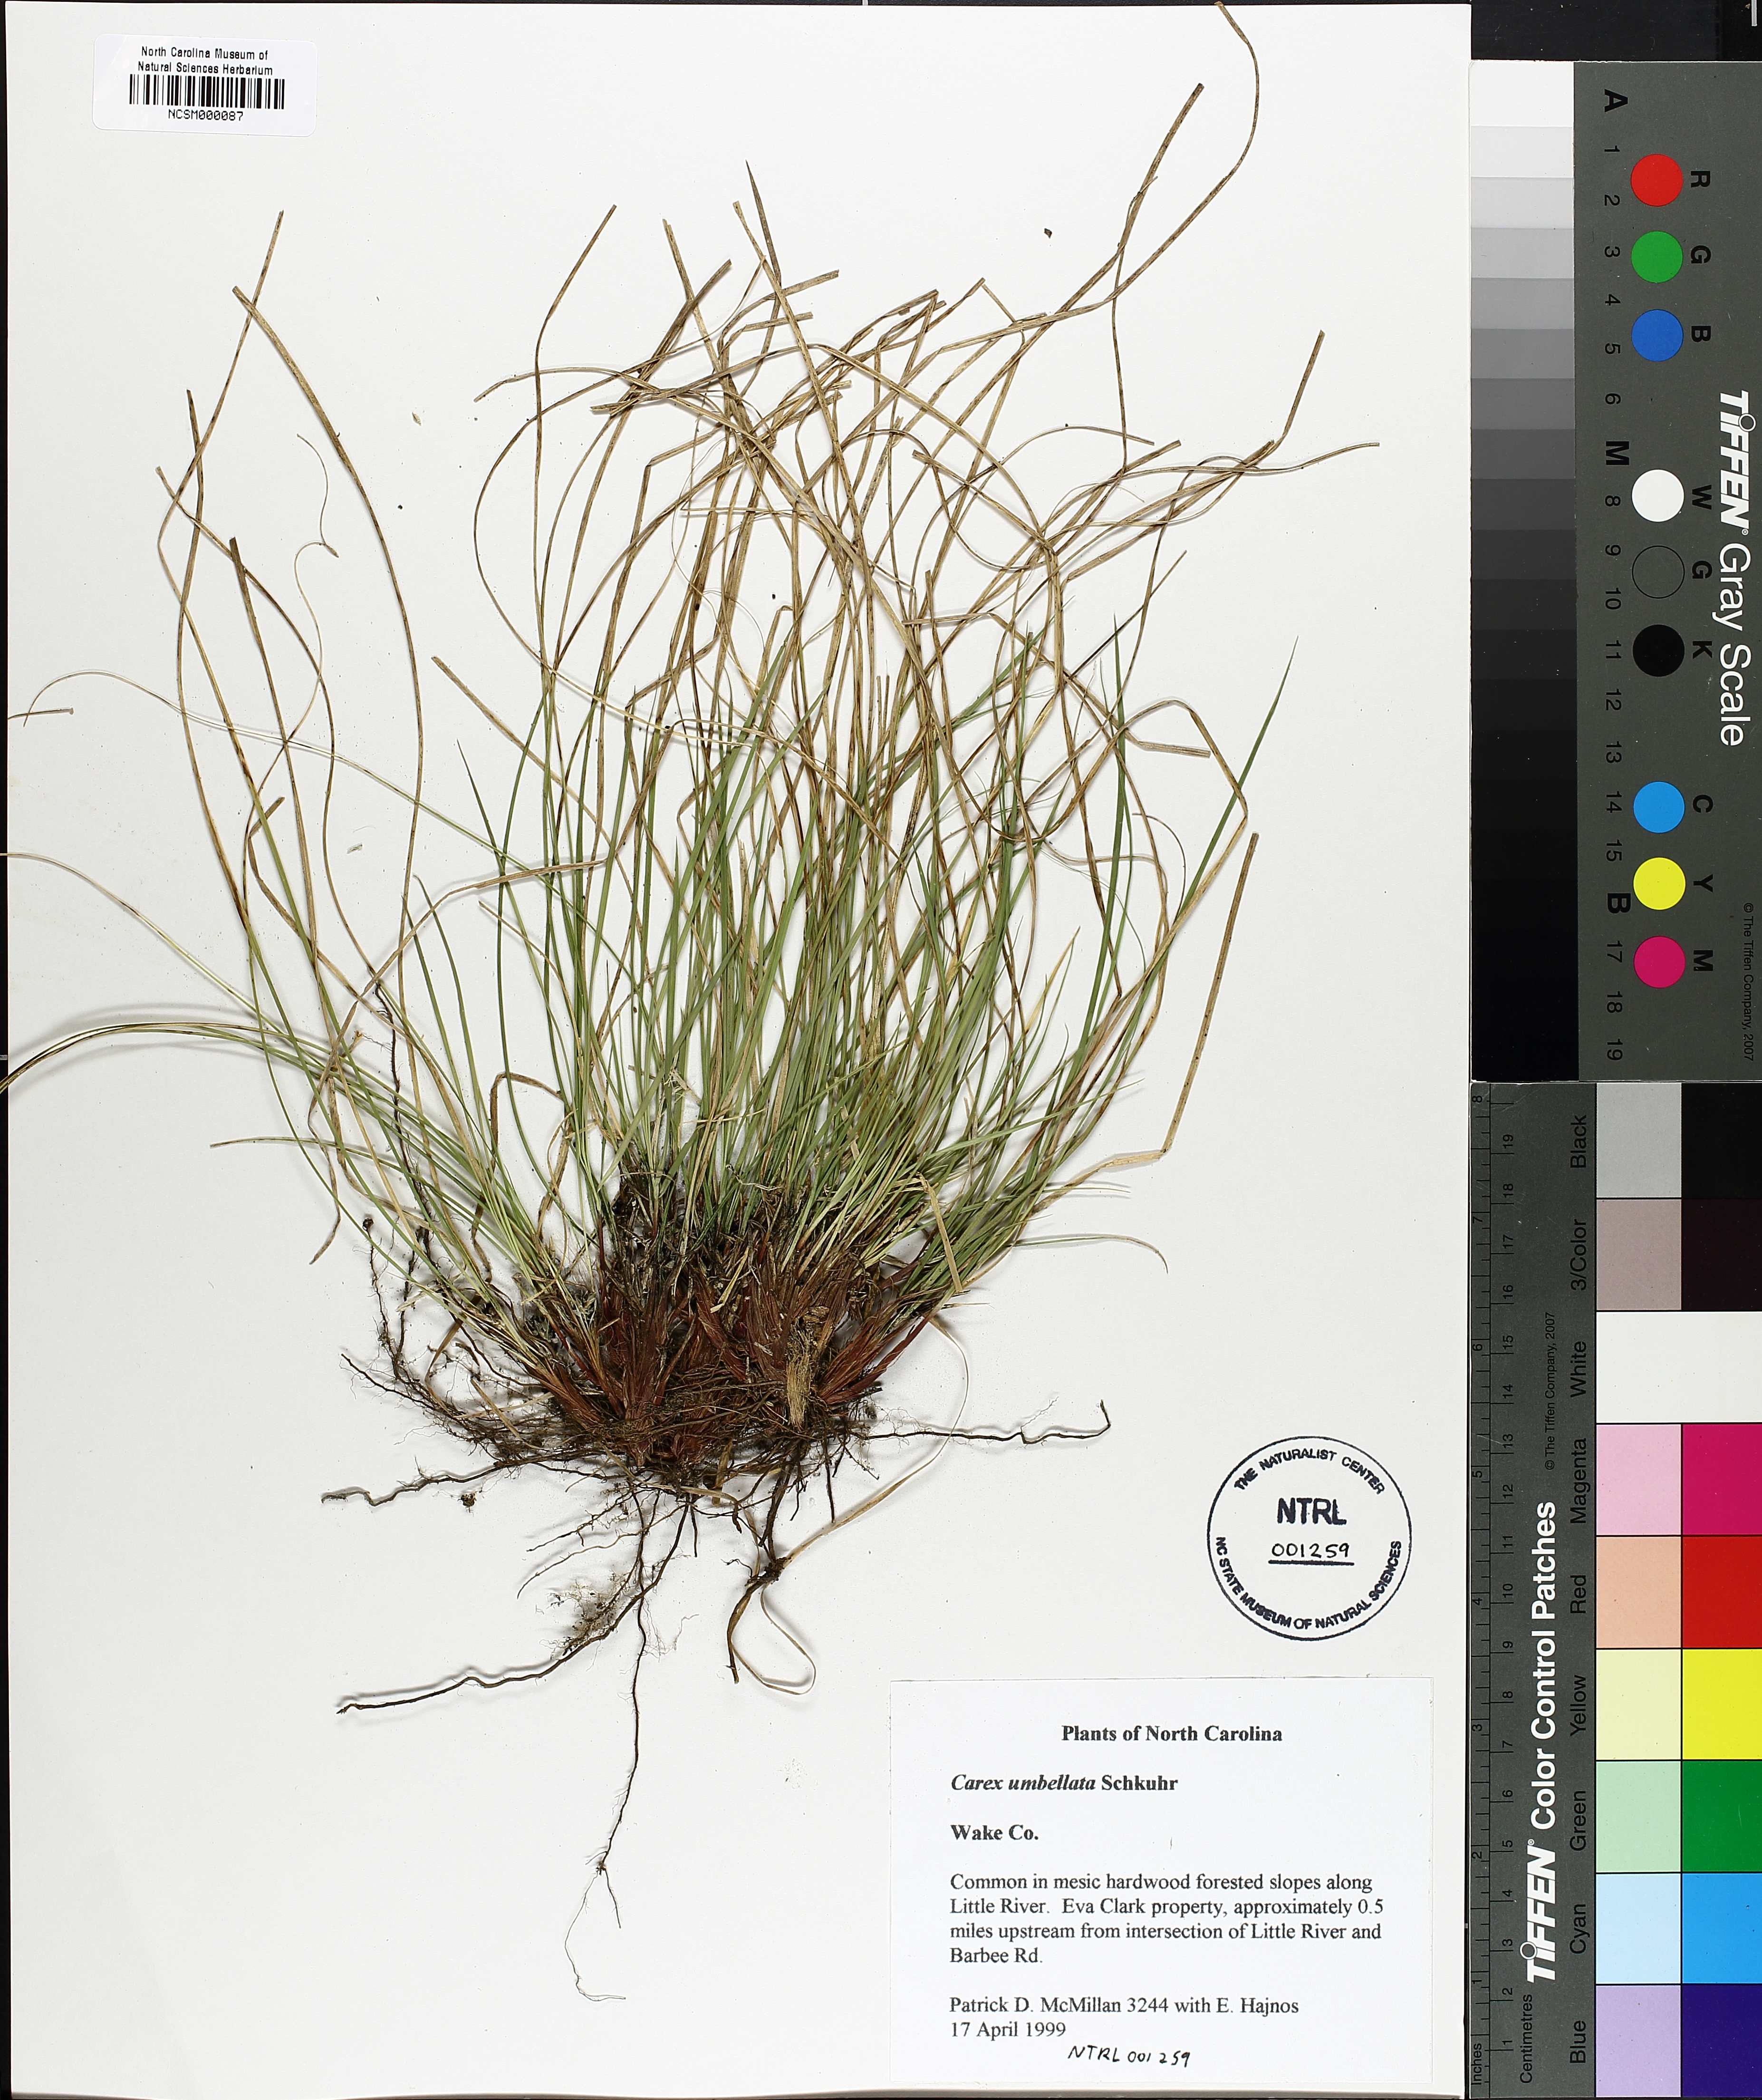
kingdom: Plantae
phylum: Tracheophyta
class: Liliopsida
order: Poales
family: Cyperaceae
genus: Carex
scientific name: Carex umbellata
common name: Early oak sedge
